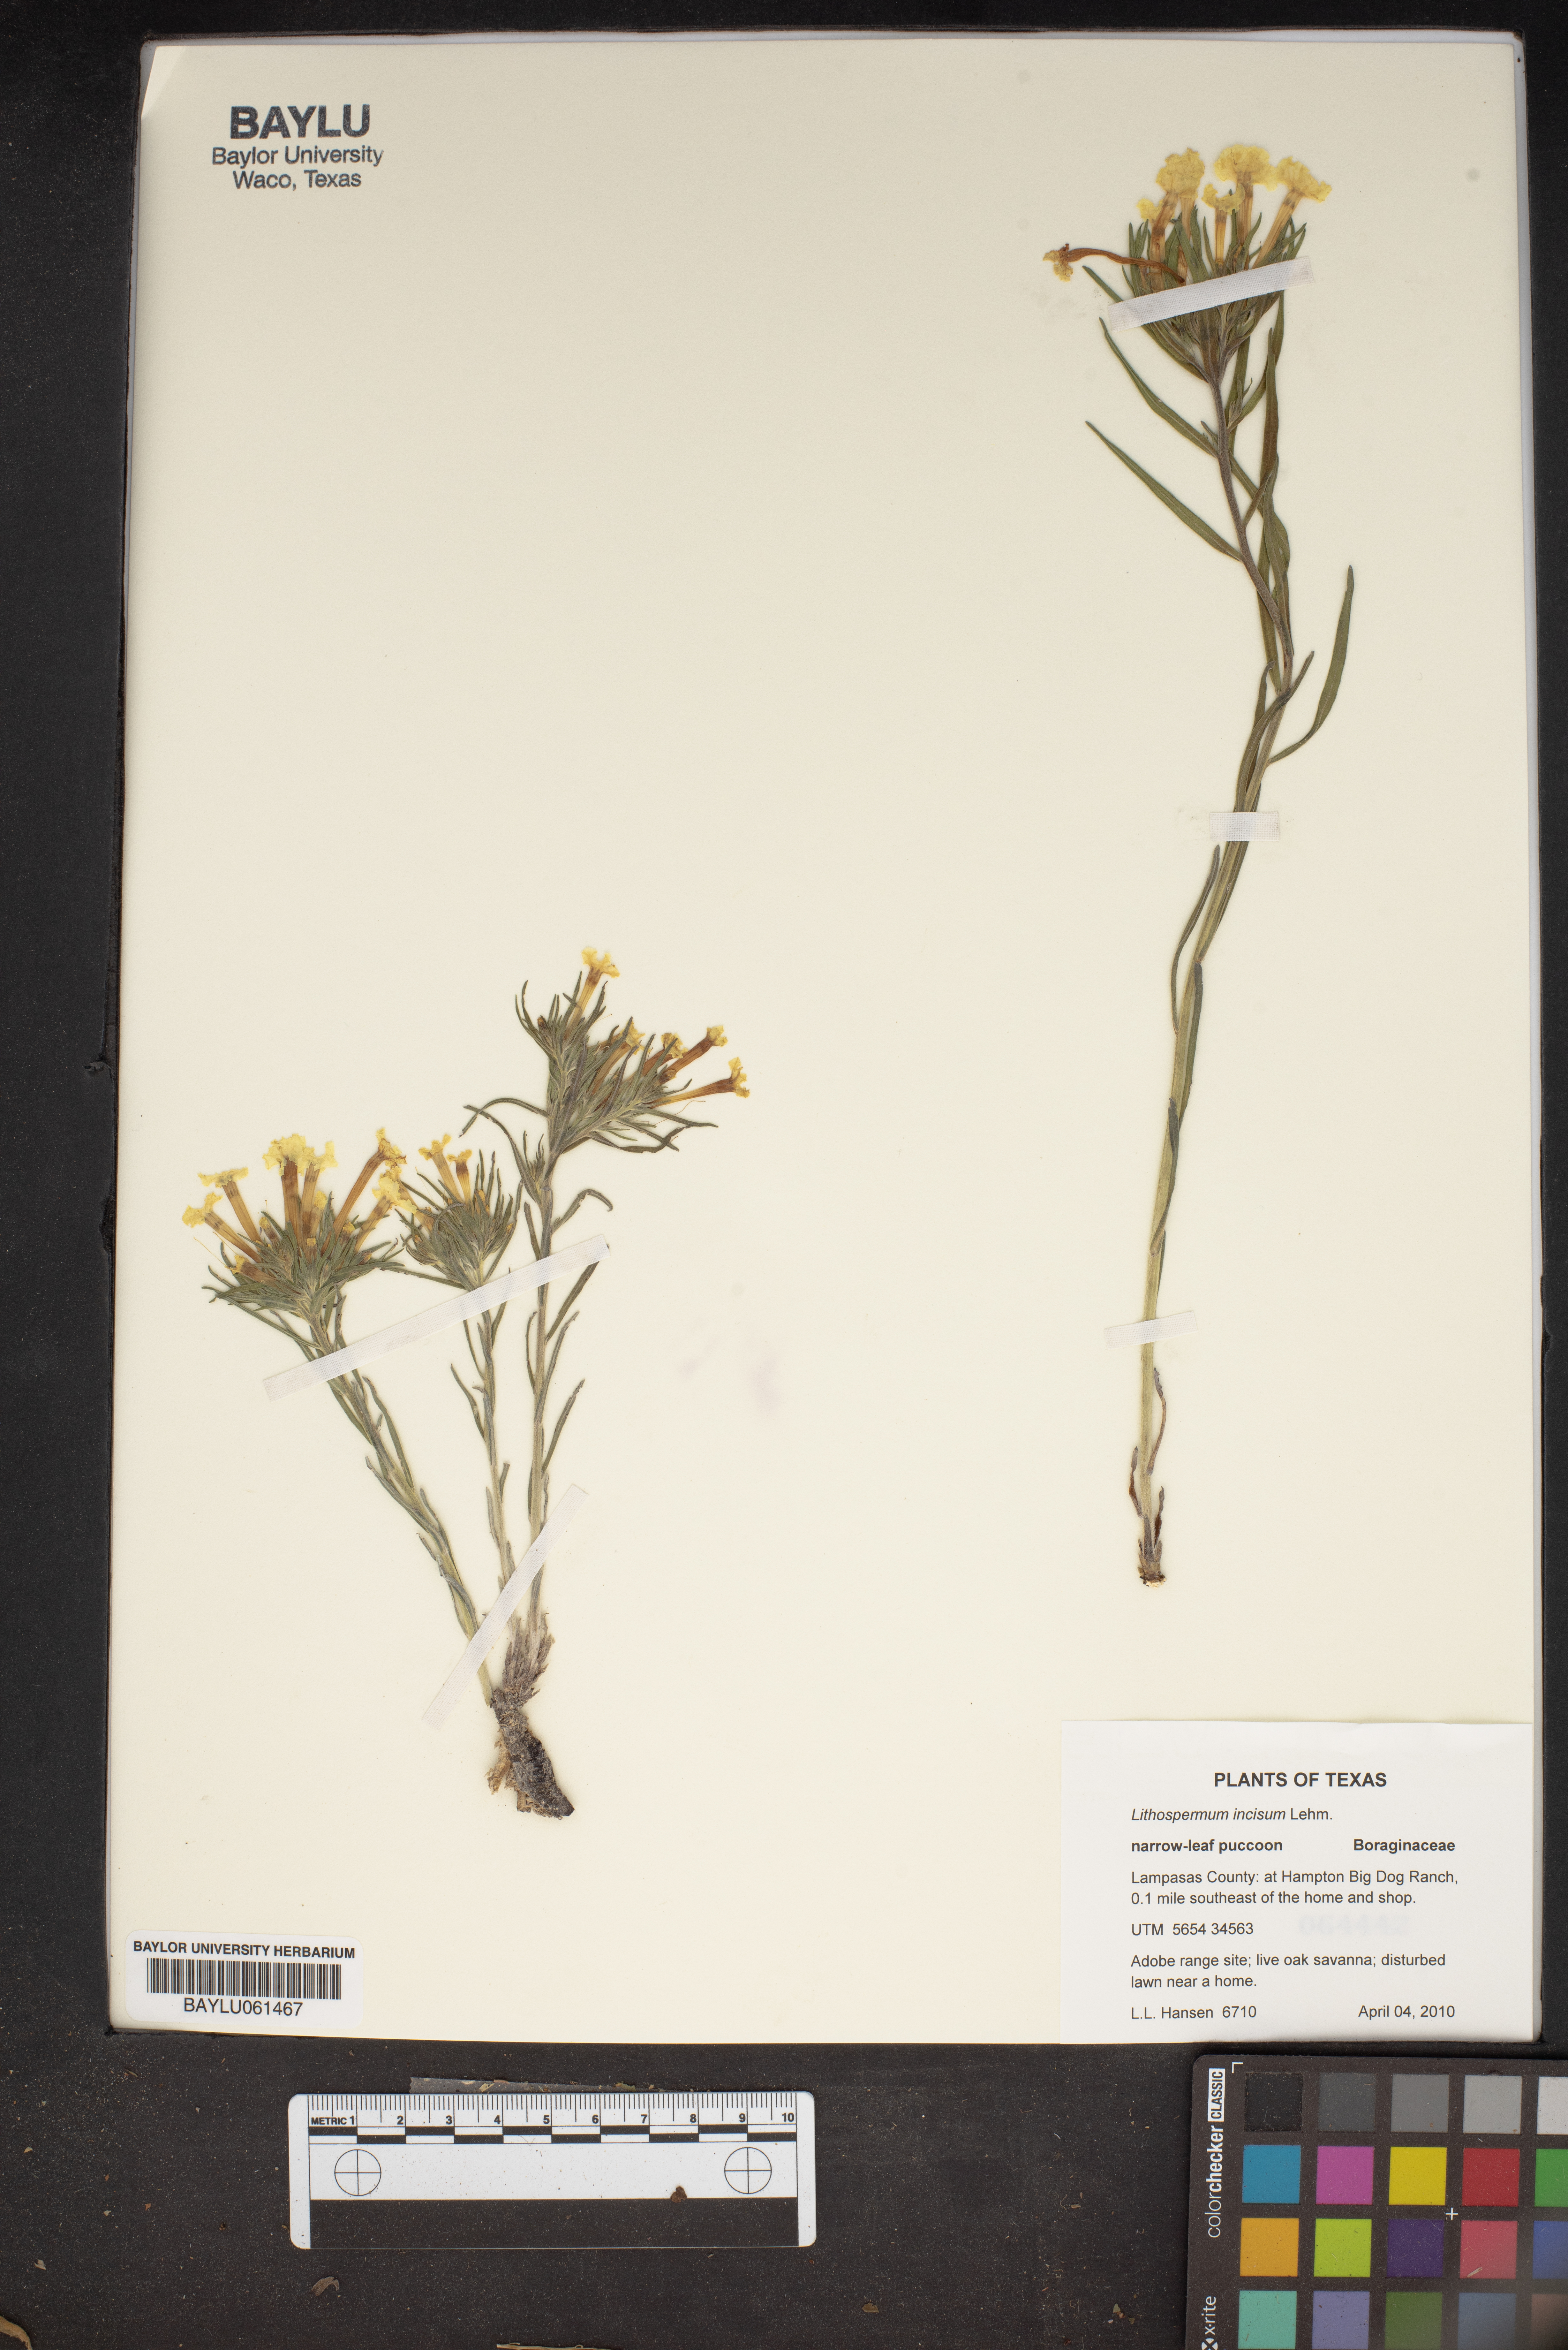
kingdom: Plantae
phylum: Tracheophyta
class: Magnoliopsida
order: Boraginales
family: Boraginaceae
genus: Lithospermum
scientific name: Lithospermum incisum
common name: Fringed gromwell
